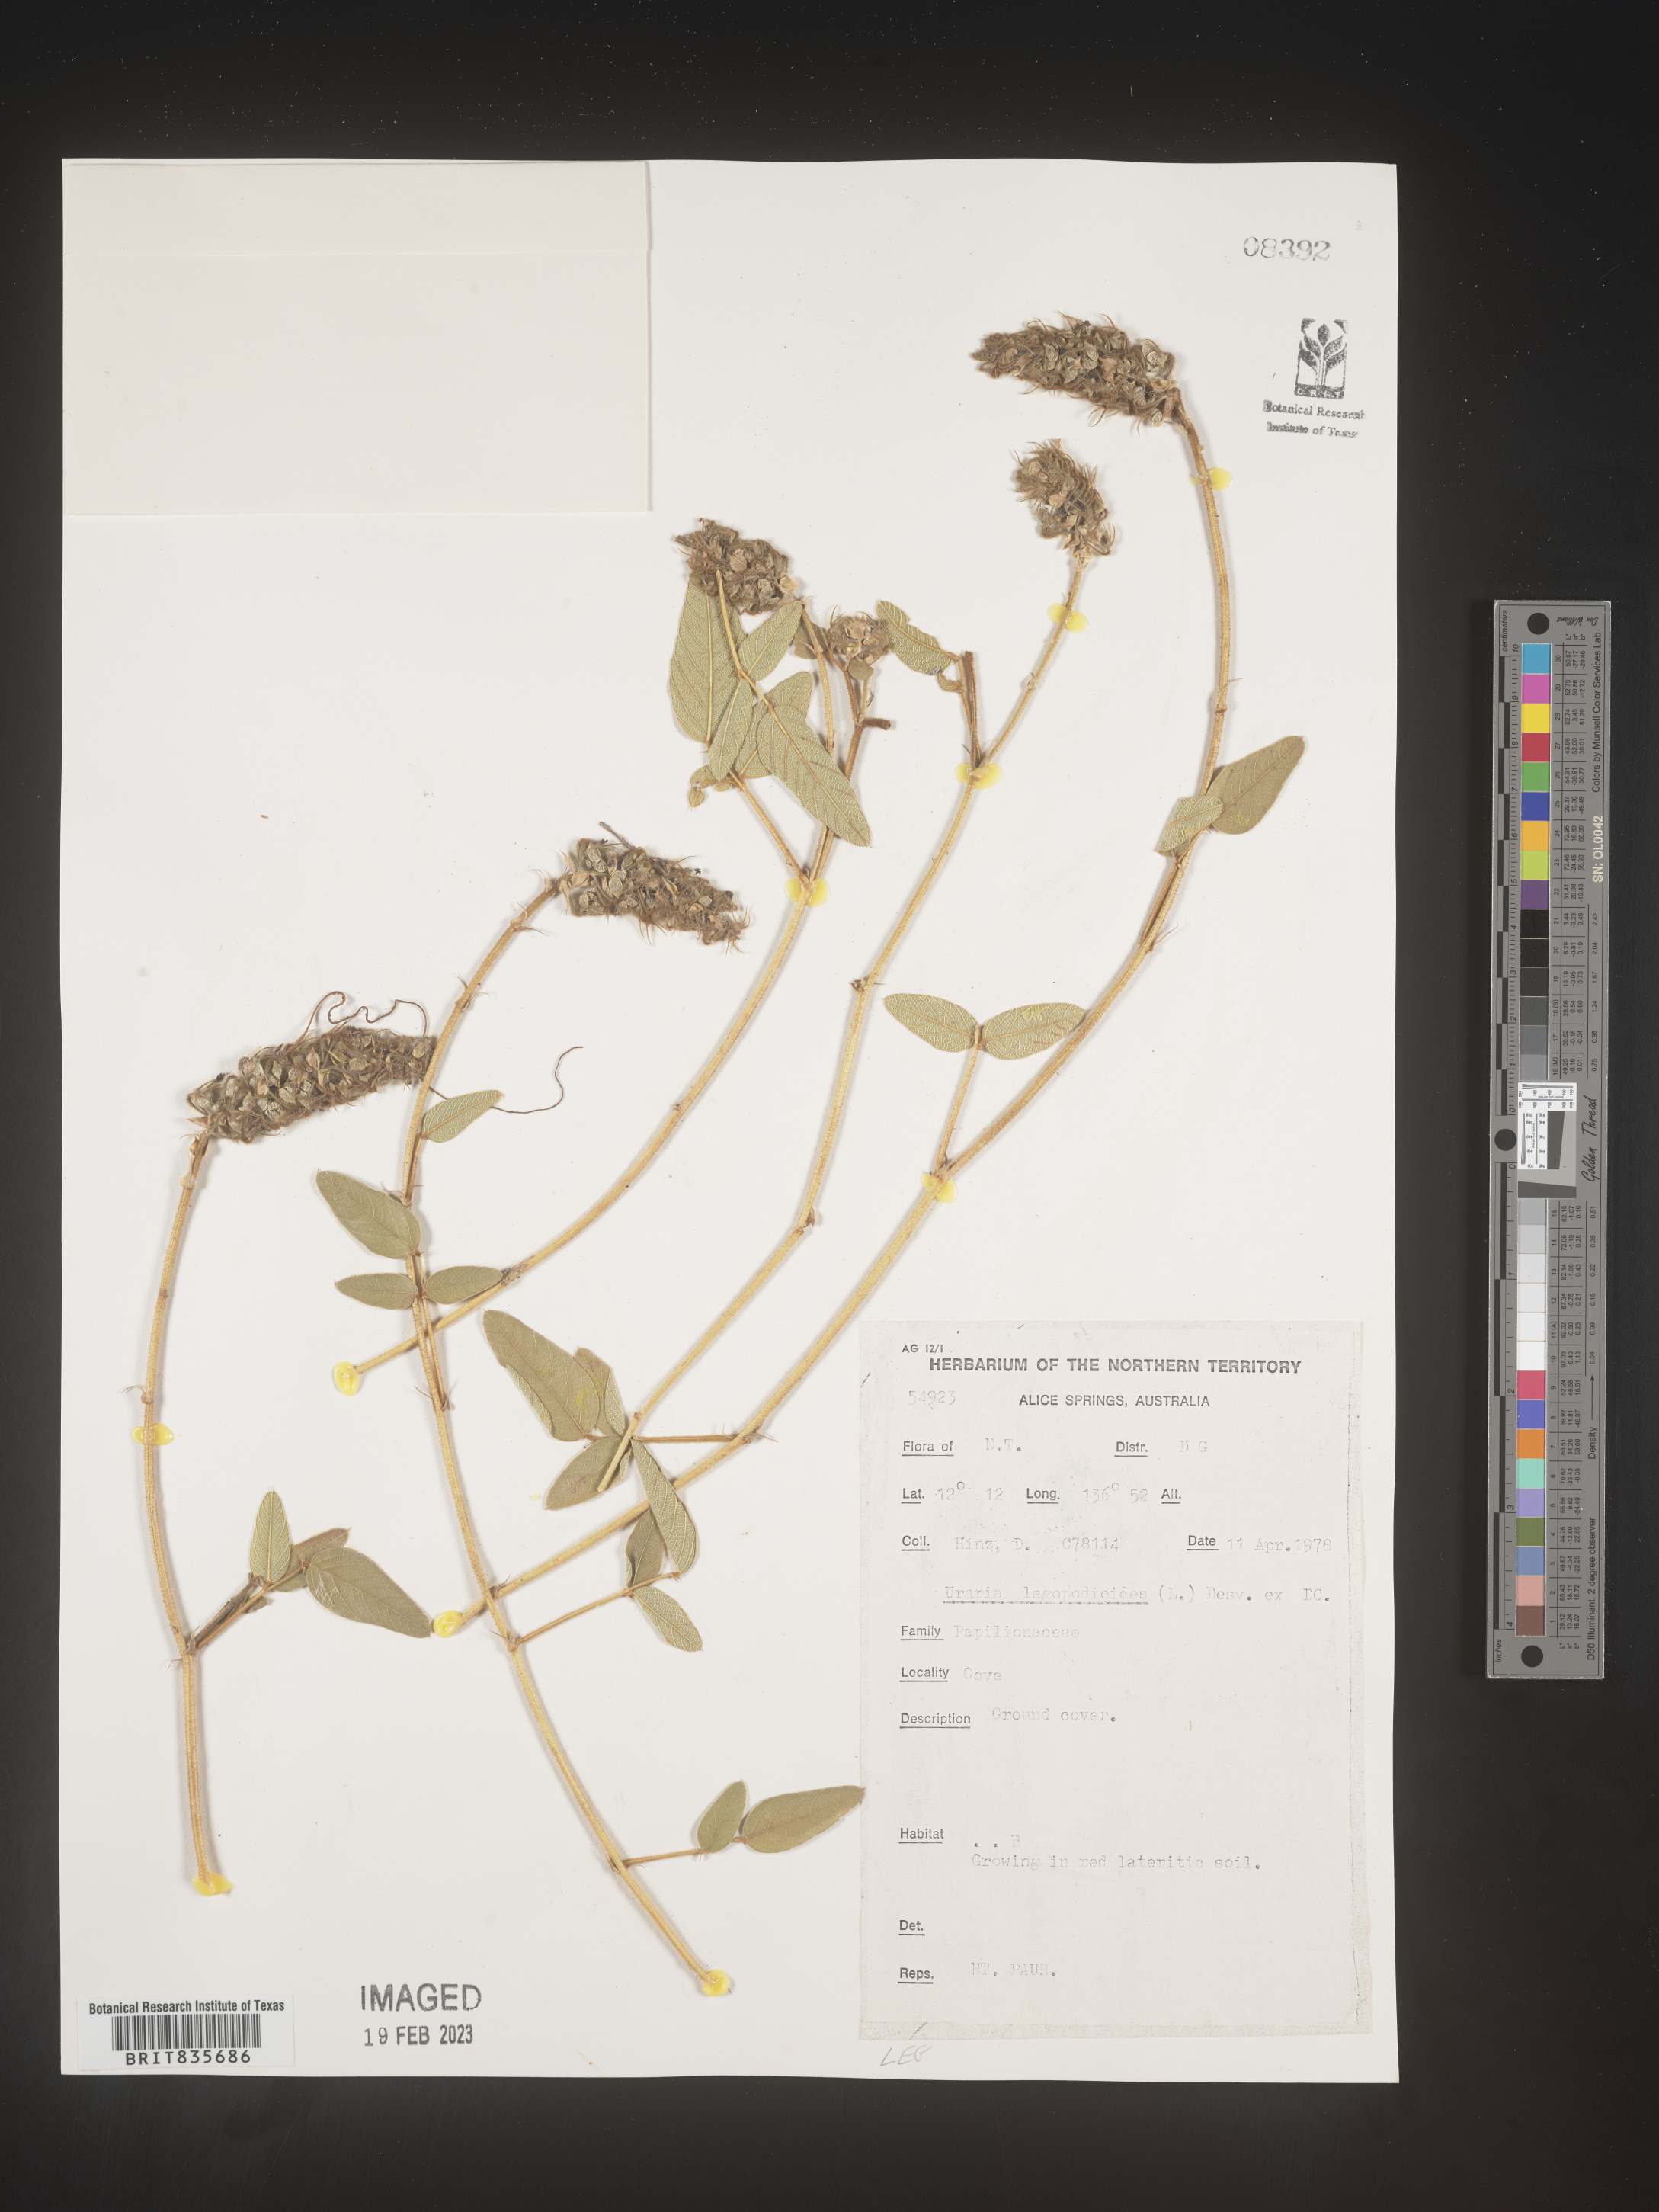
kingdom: Plantae
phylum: Tracheophyta
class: Magnoliopsida
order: Fabales
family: Fabaceae
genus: Uraria
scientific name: Uraria
